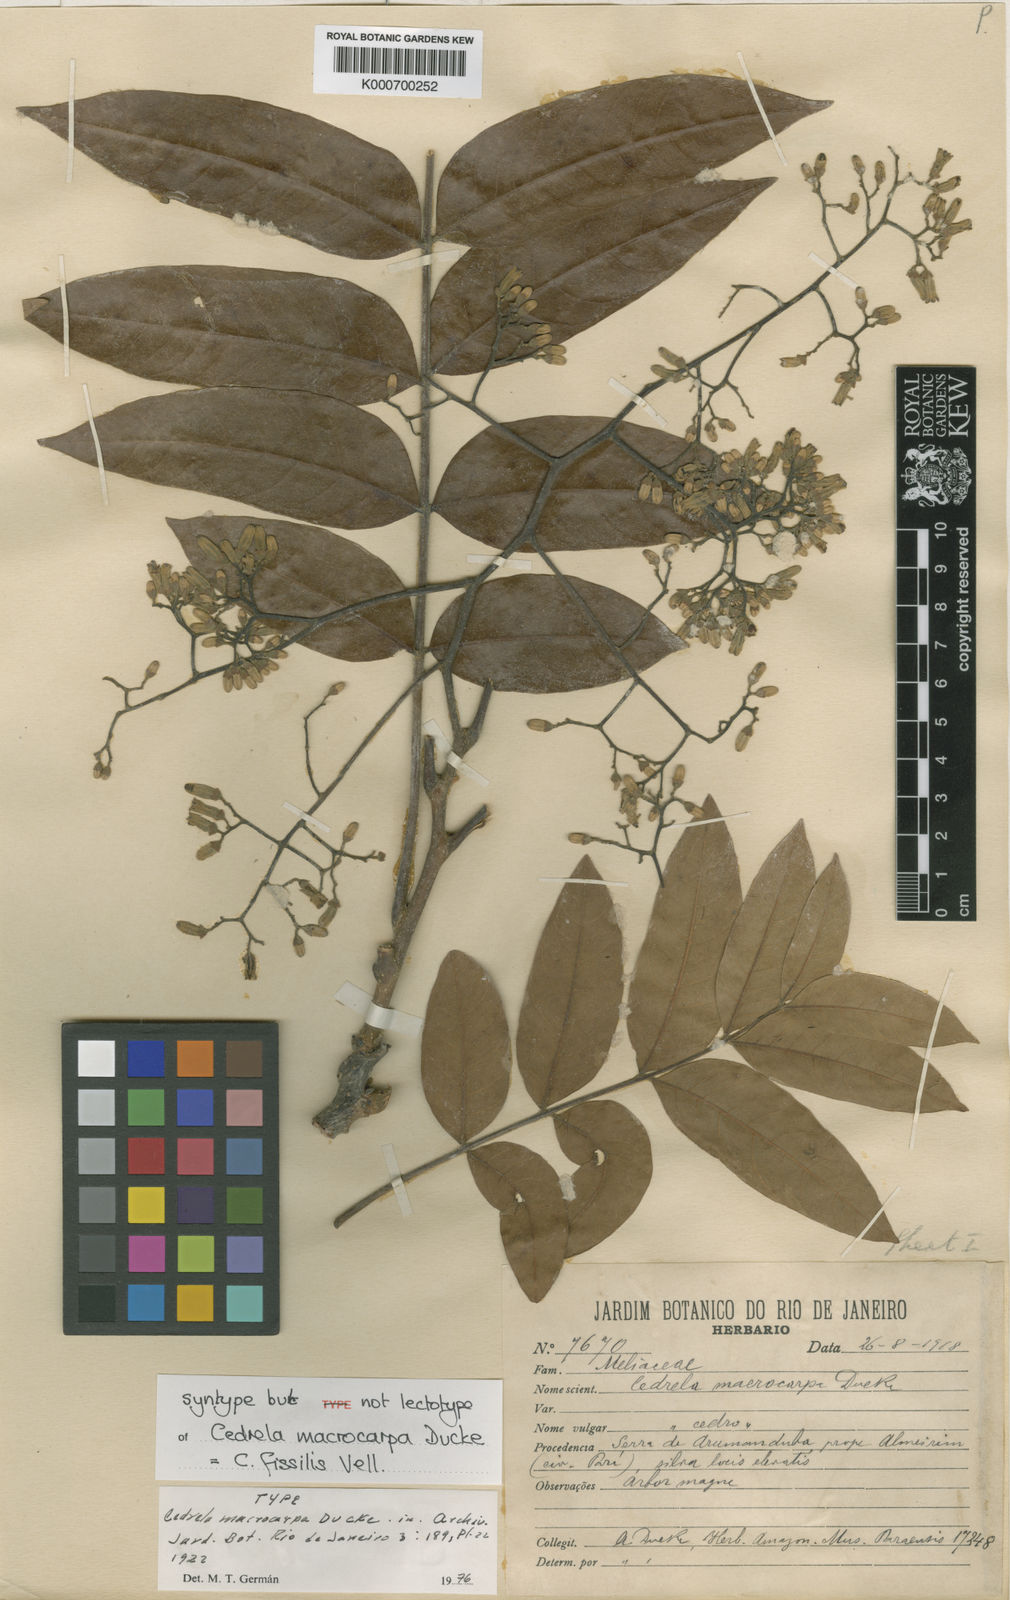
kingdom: Plantae
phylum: Tracheophyta
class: Magnoliopsida
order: Sapindales
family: Meliaceae
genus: Cedrela
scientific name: Cedrela fissilis
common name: Argentine cedar
